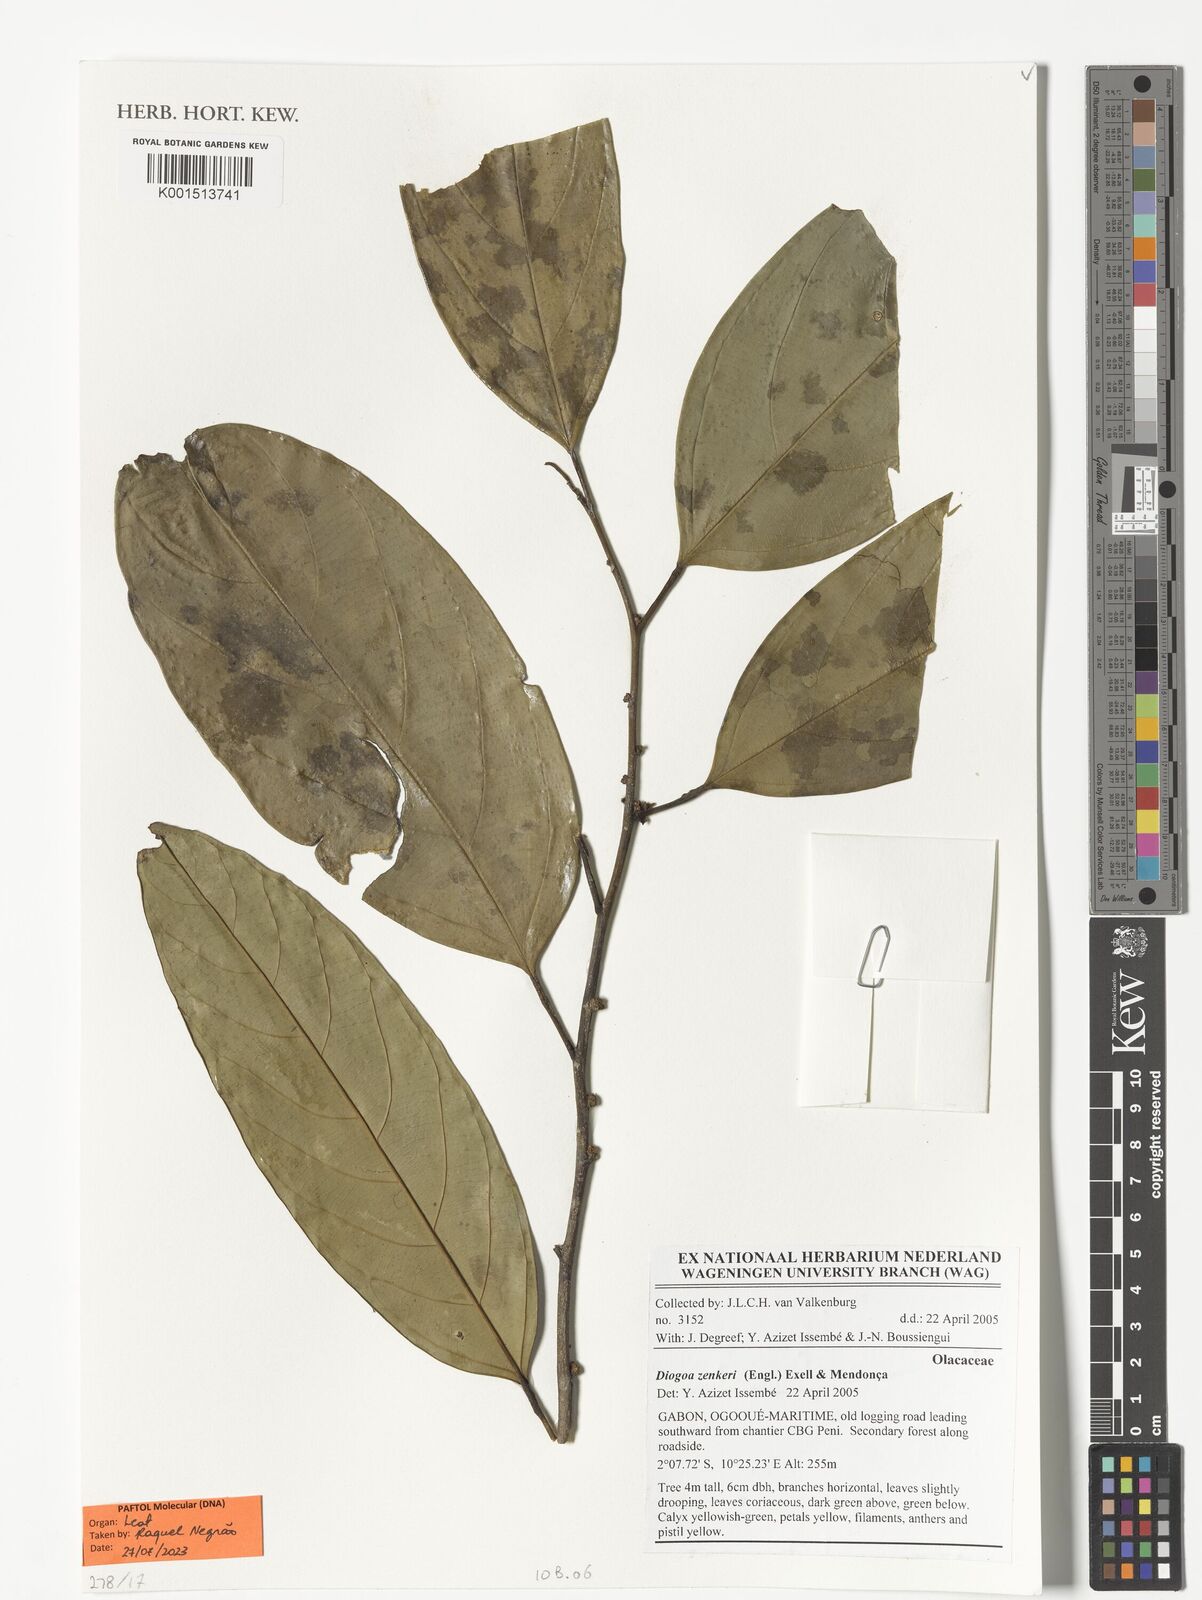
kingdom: Plantae
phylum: Tracheophyta
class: Magnoliopsida
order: Santalales
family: Strombosiaceae
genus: Diogoa
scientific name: Diogoa zenkeri
